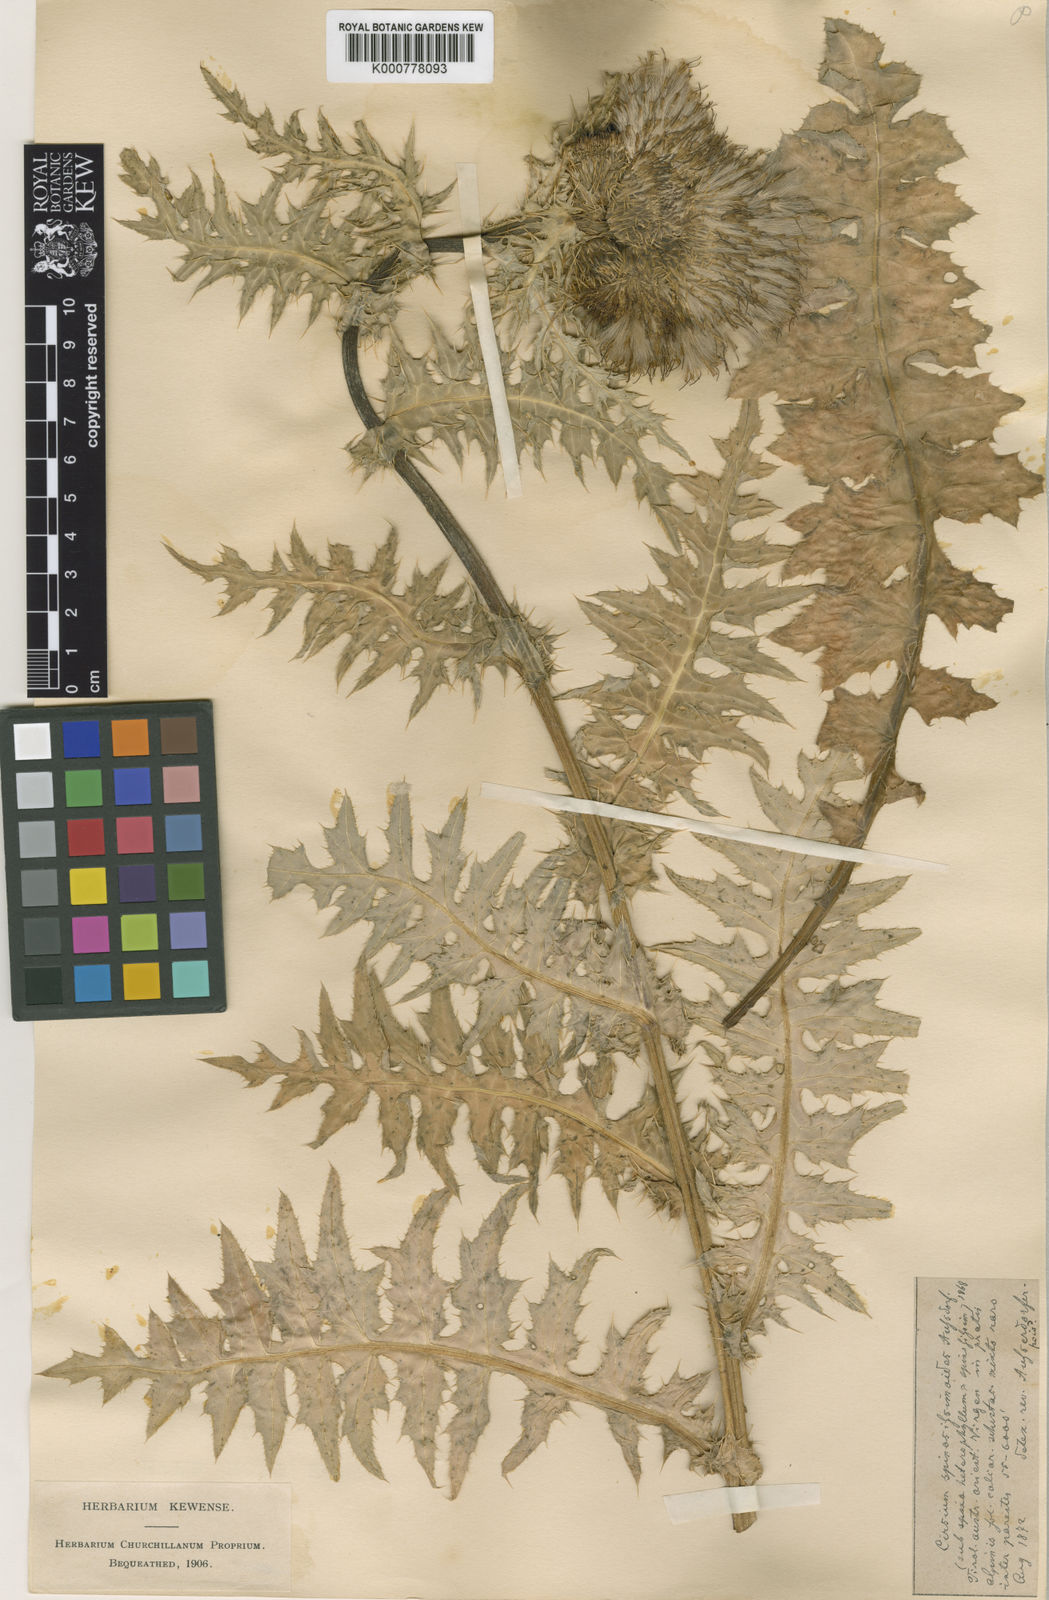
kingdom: Plantae
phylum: Tracheophyta
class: Magnoliopsida
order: Asterales
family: Asteraceae
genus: Cirsium
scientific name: Cirsium spinosissimum
